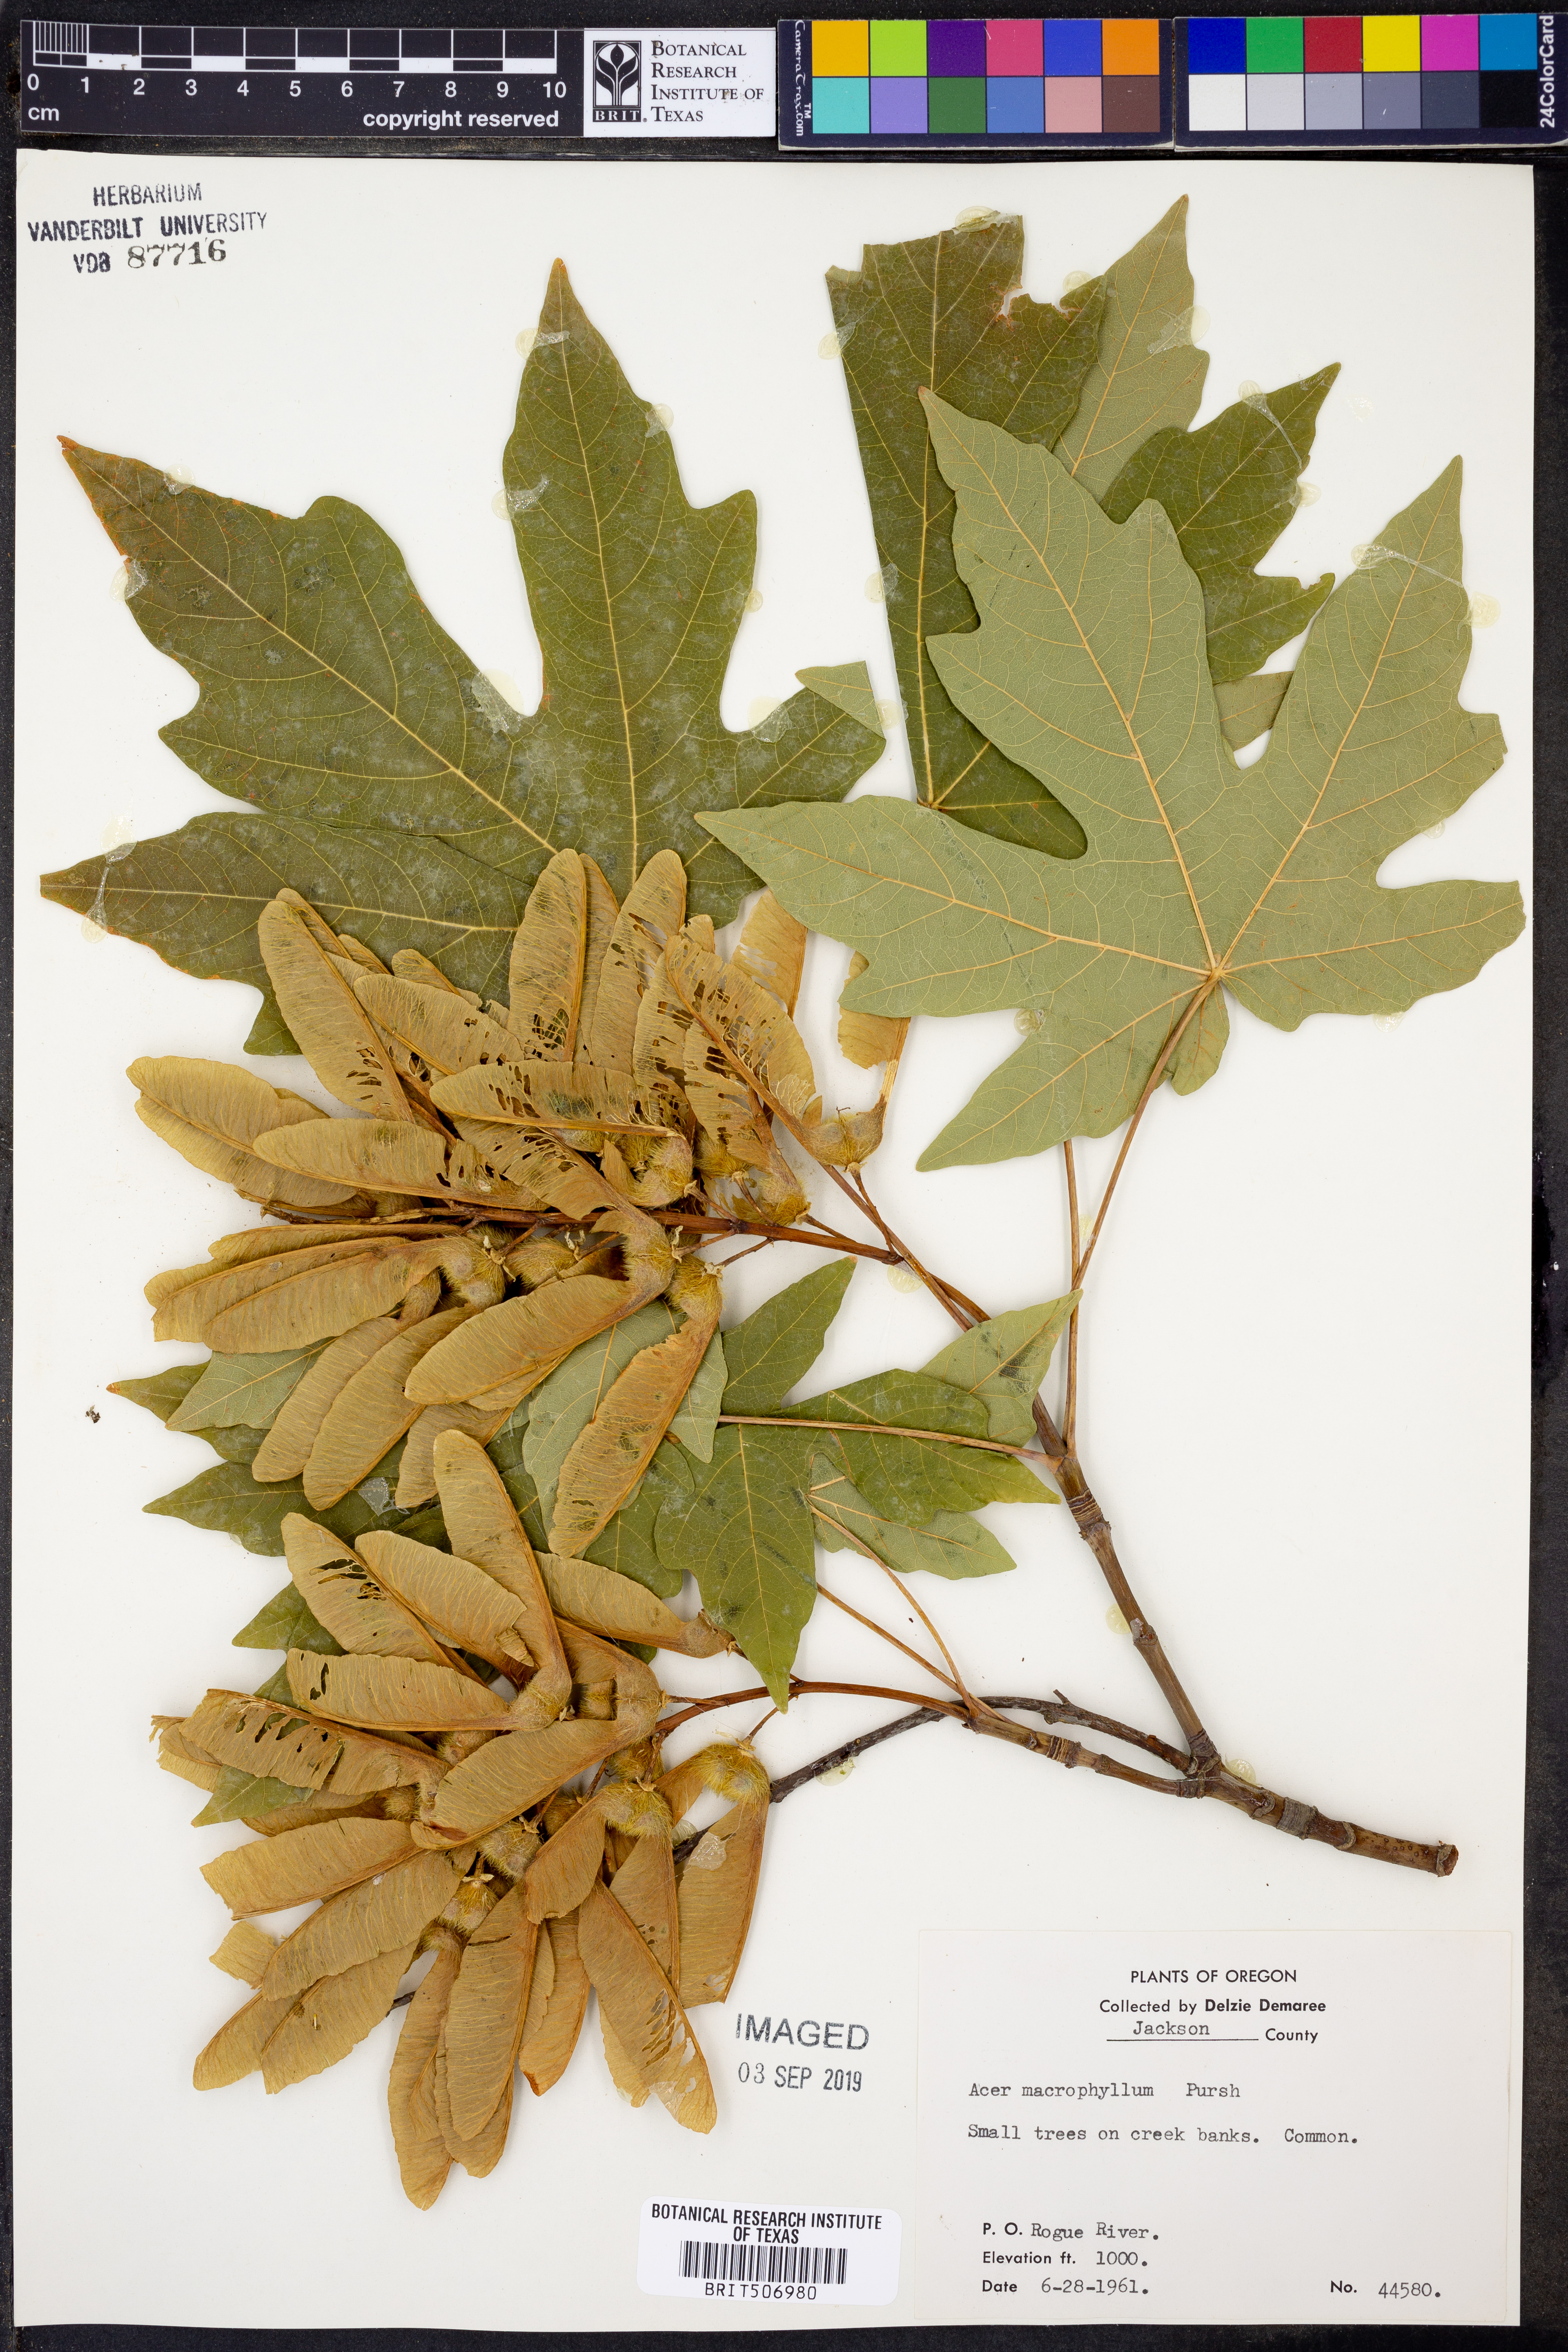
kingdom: Plantae
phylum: Tracheophyta
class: Magnoliopsida
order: Sapindales
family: Sapindaceae
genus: Acer
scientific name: Acer macrophyllum
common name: Oregon maple
